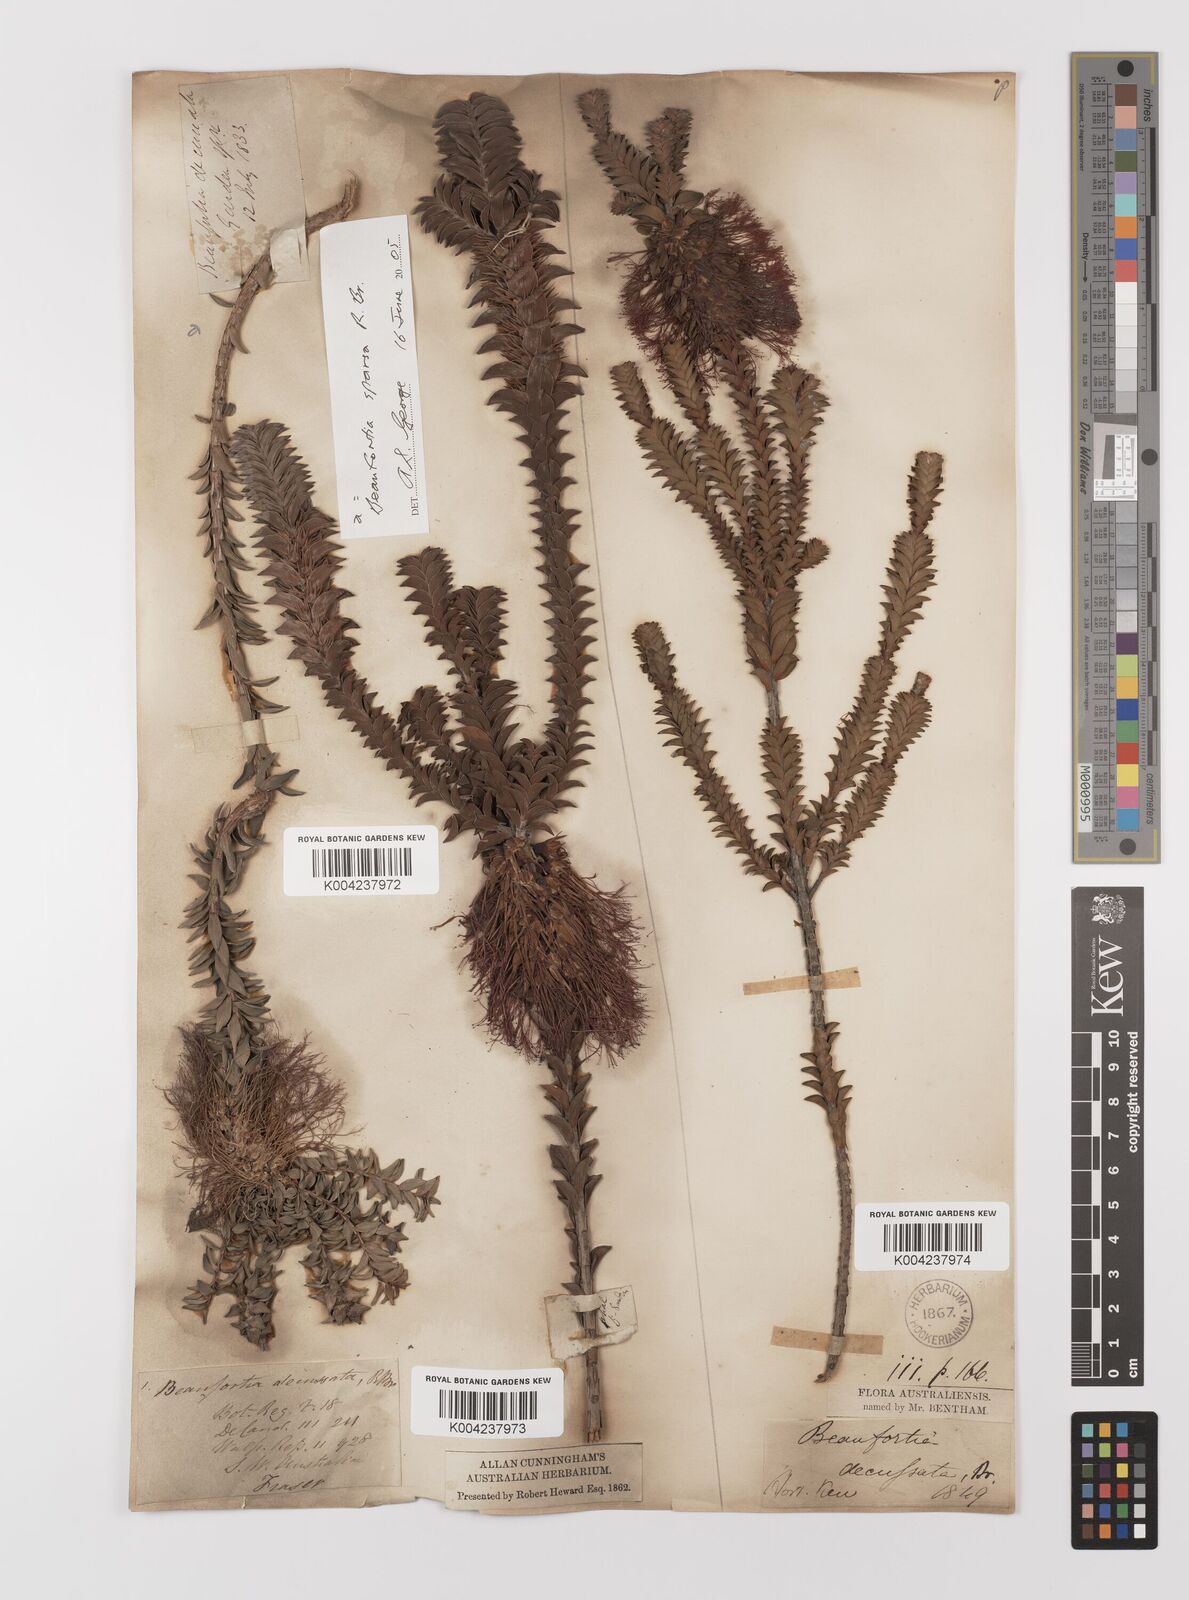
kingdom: Plantae
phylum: Tracheophyta
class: Magnoliopsida
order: Myrtales
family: Myrtaceae
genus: Melaleuca
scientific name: Melaleuca transversa
